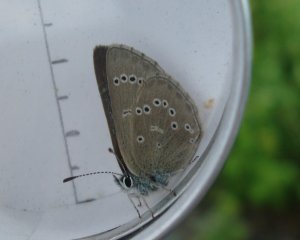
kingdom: Animalia
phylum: Arthropoda
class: Insecta
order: Lepidoptera
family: Lycaenidae
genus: Glaucopsyche
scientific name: Glaucopsyche lygdamus
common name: Silvery Blue
